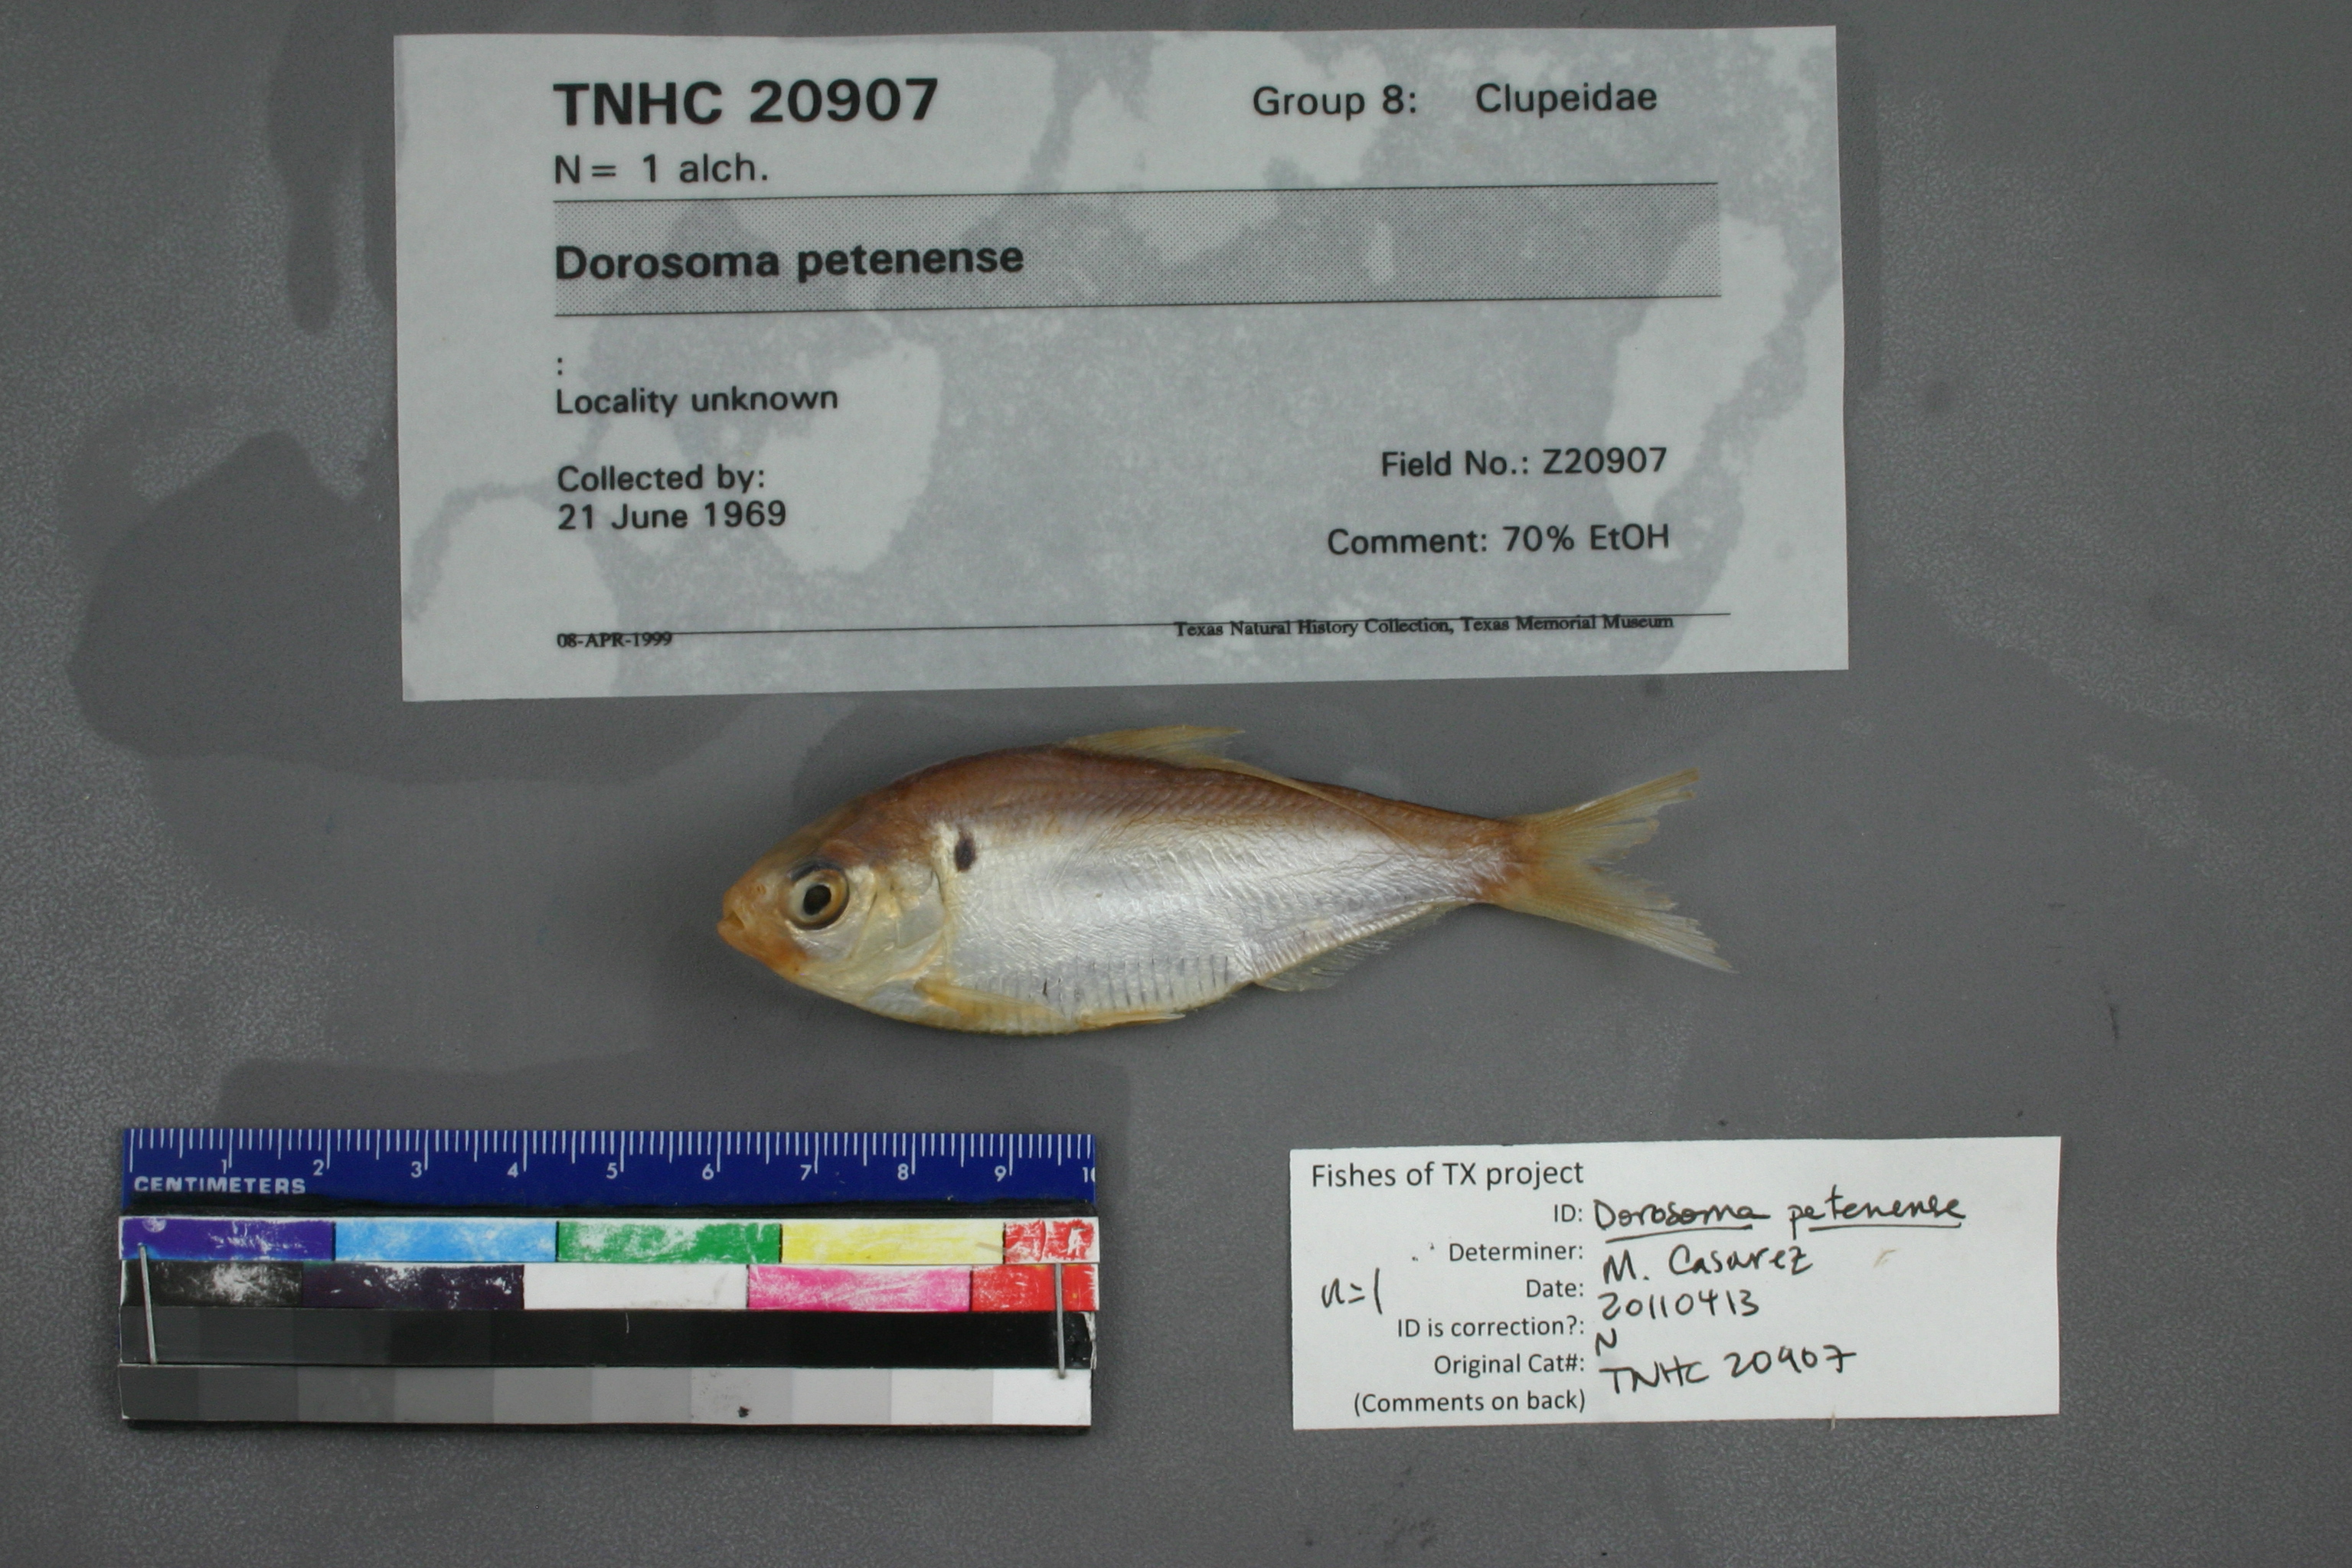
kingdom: Animalia
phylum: Chordata
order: Clupeiformes
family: Clupeidae
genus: Dorosoma
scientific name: Dorosoma petenense
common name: Threadfin shad
